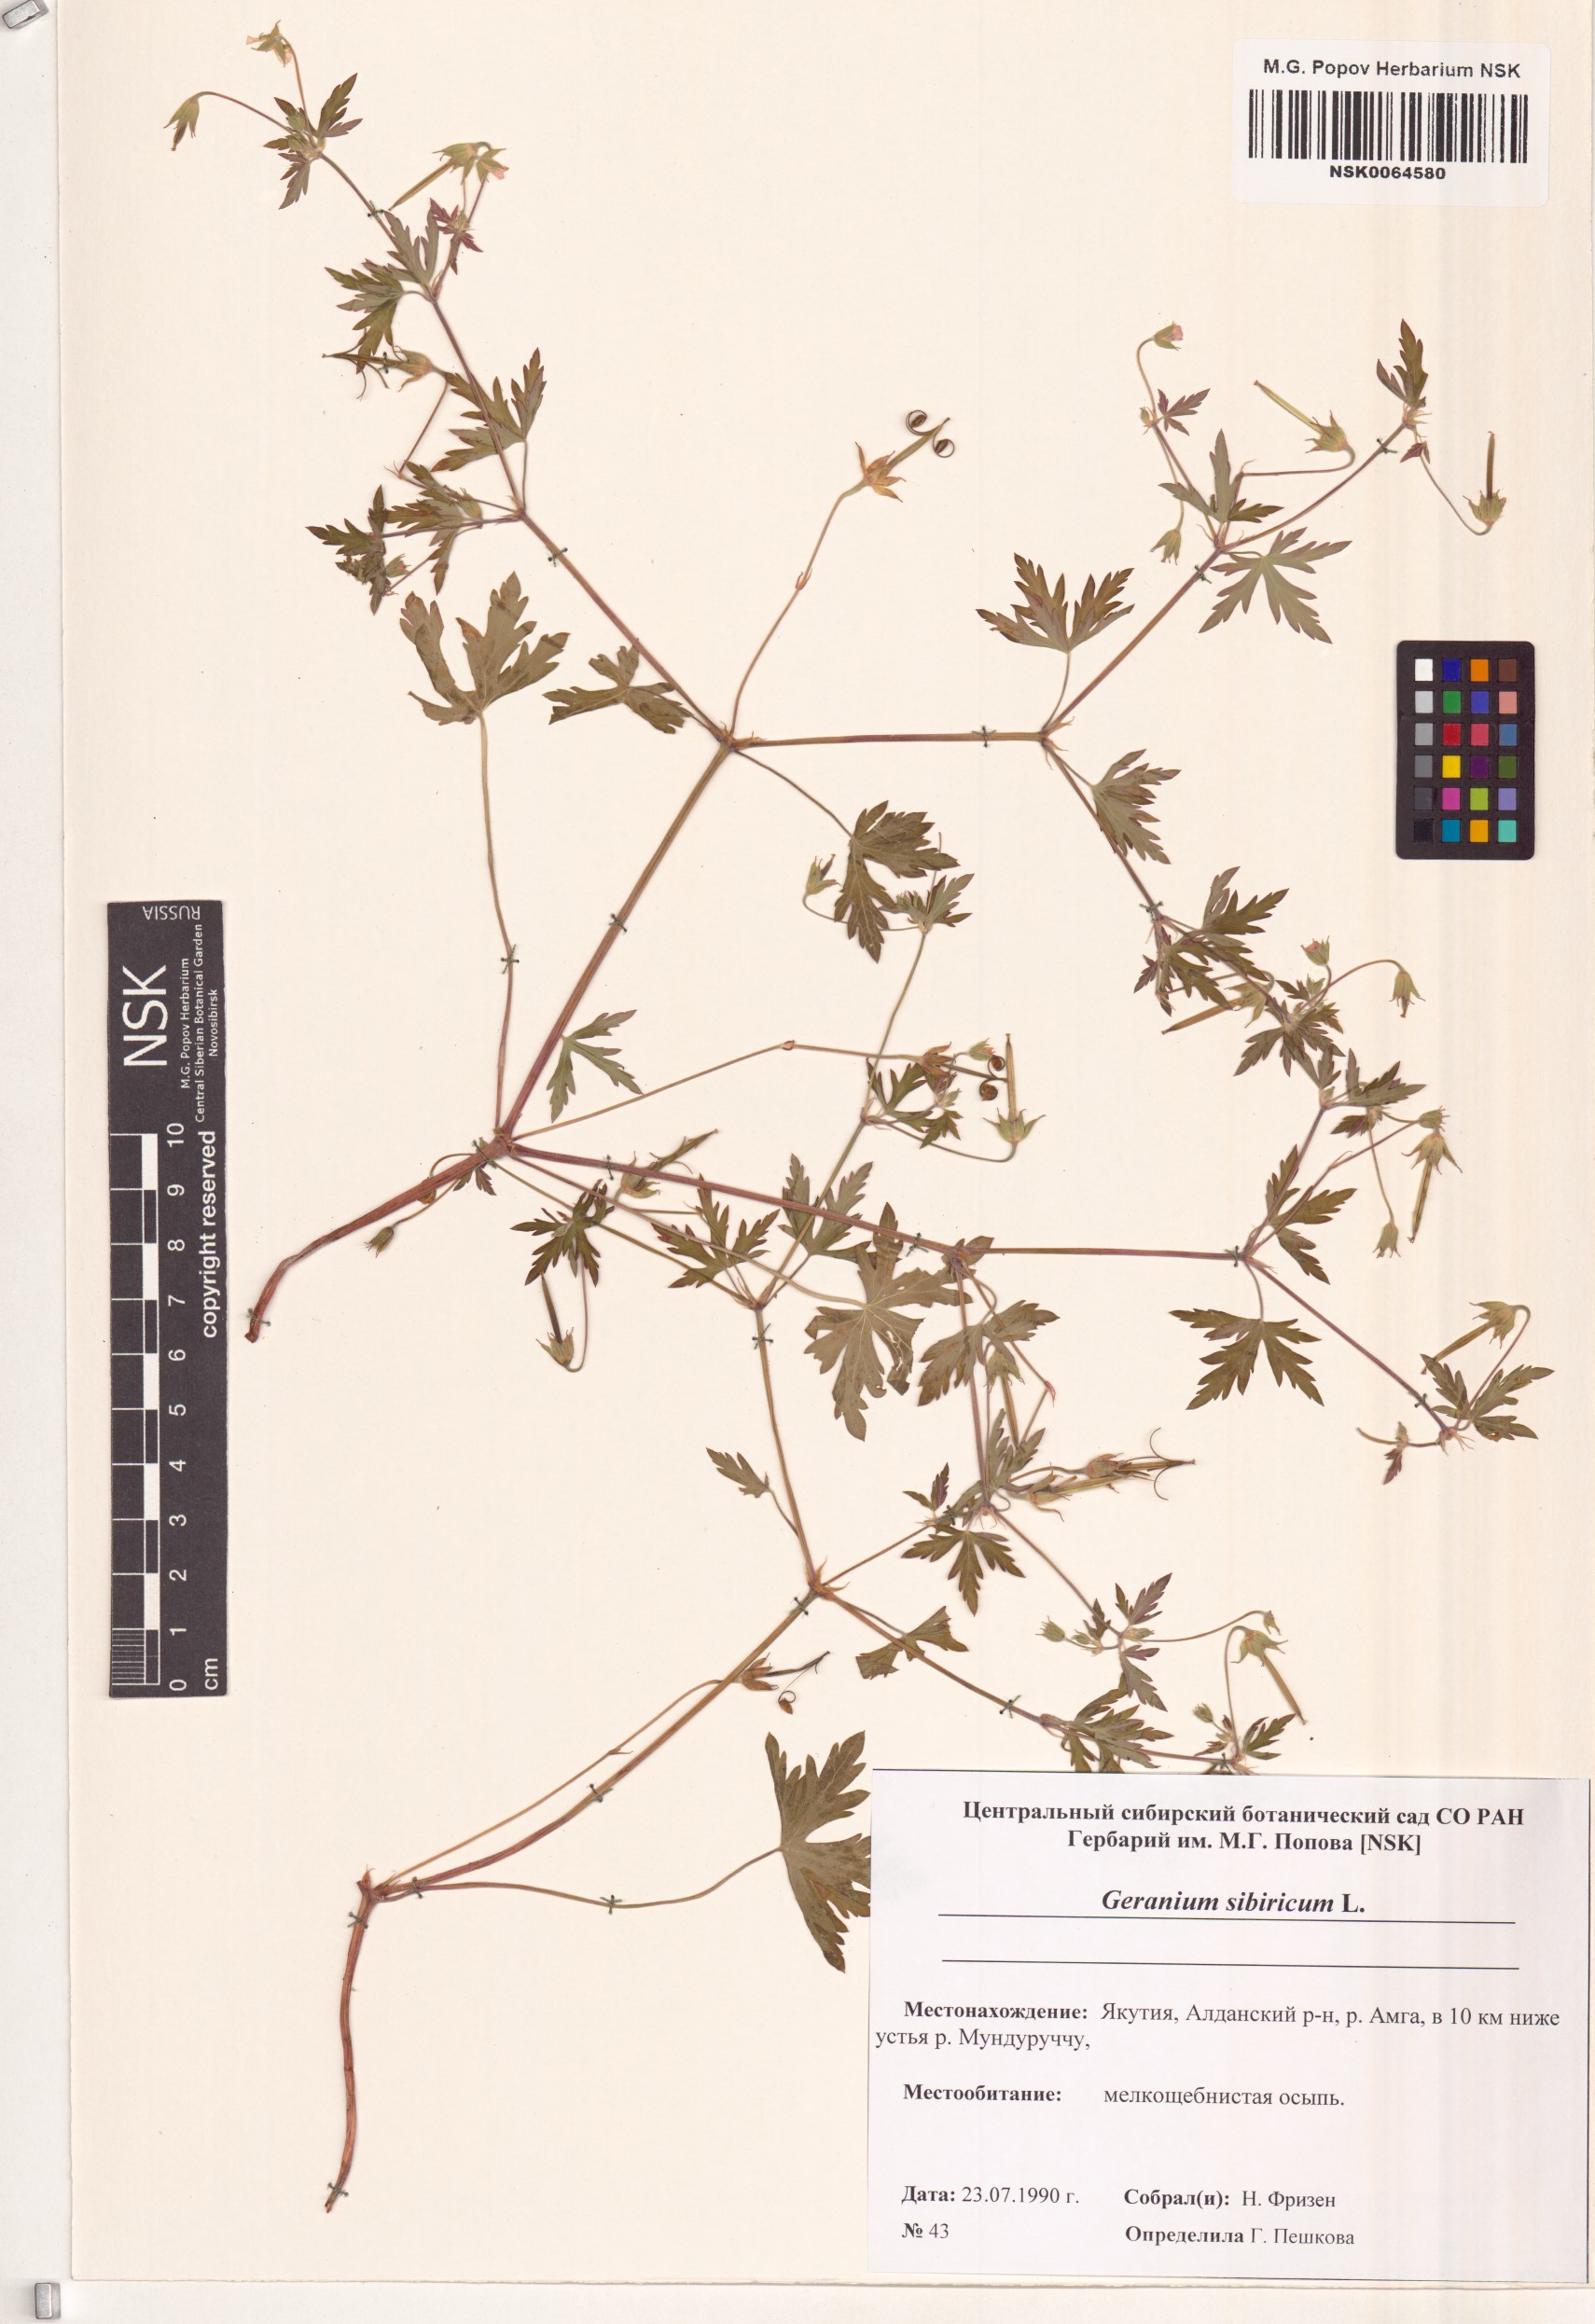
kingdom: Plantae
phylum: Tracheophyta
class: Magnoliopsida
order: Geraniales
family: Geraniaceae
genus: Geranium
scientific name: Geranium sibiricum
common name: Siberian crane's-bill
